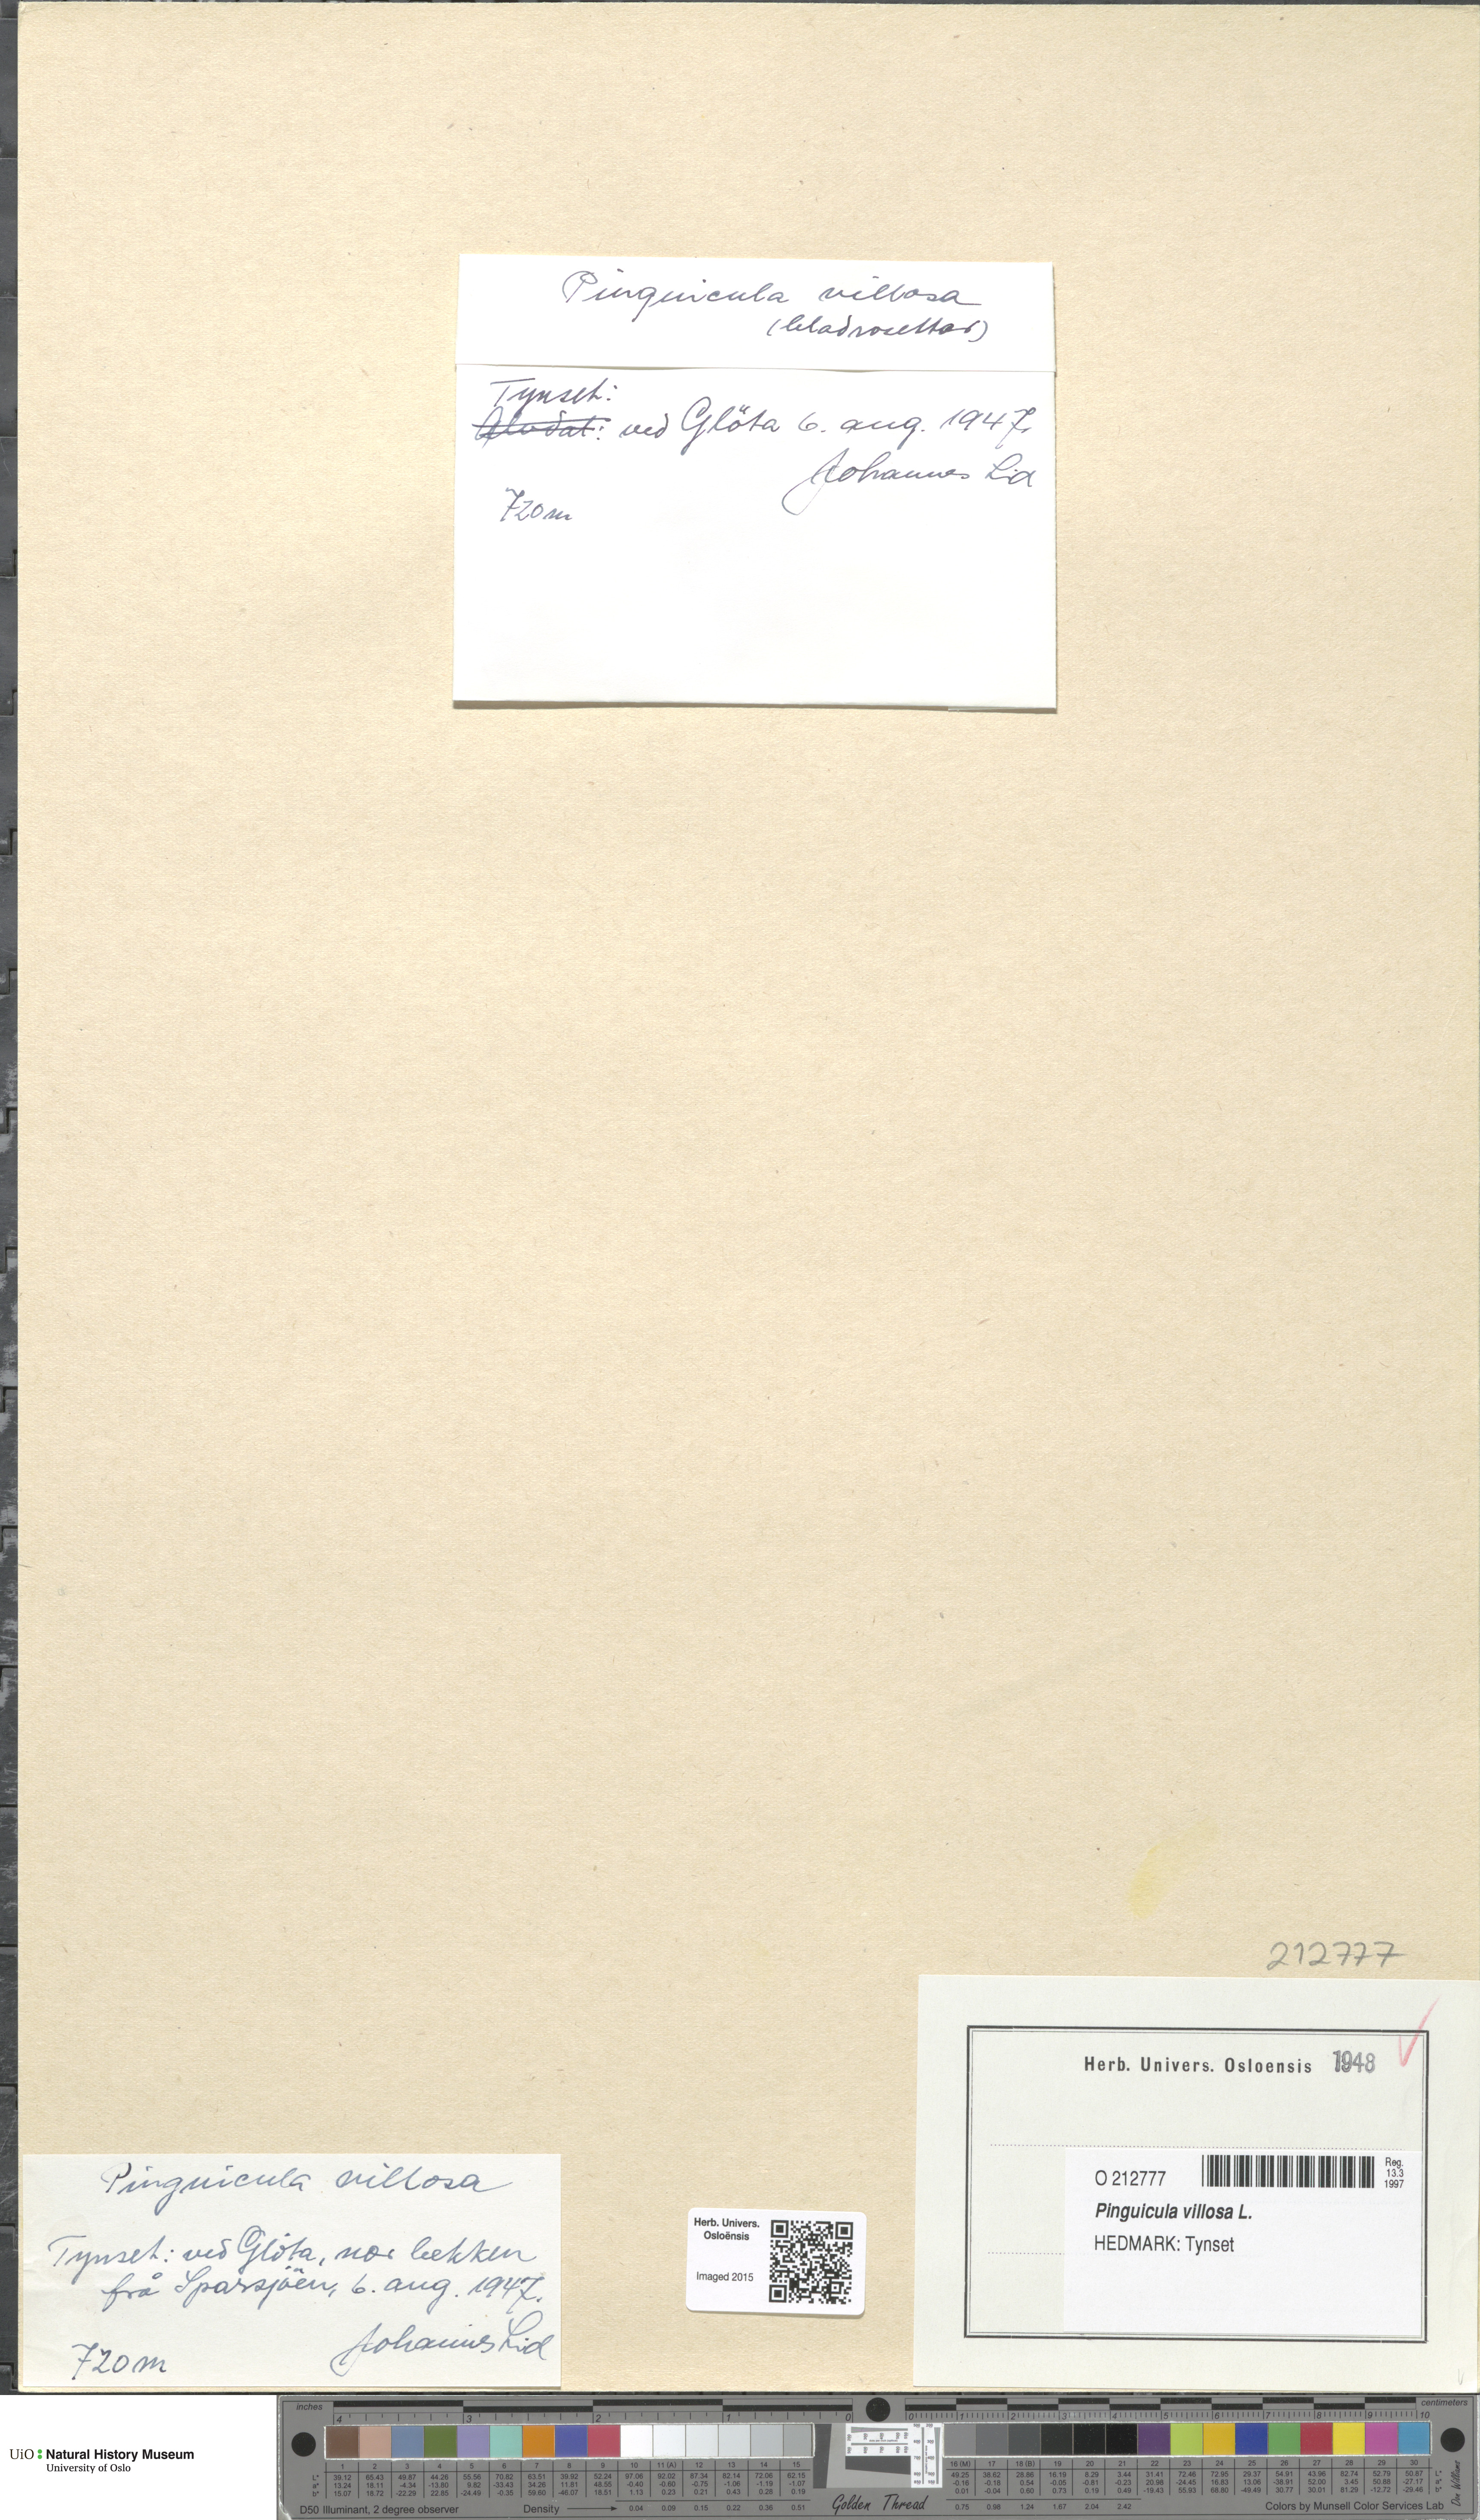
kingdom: Plantae
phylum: Tracheophyta
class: Magnoliopsida
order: Lamiales
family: Lentibulariaceae
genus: Pinguicula
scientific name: Pinguicula villosa
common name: Hairy butterwort
